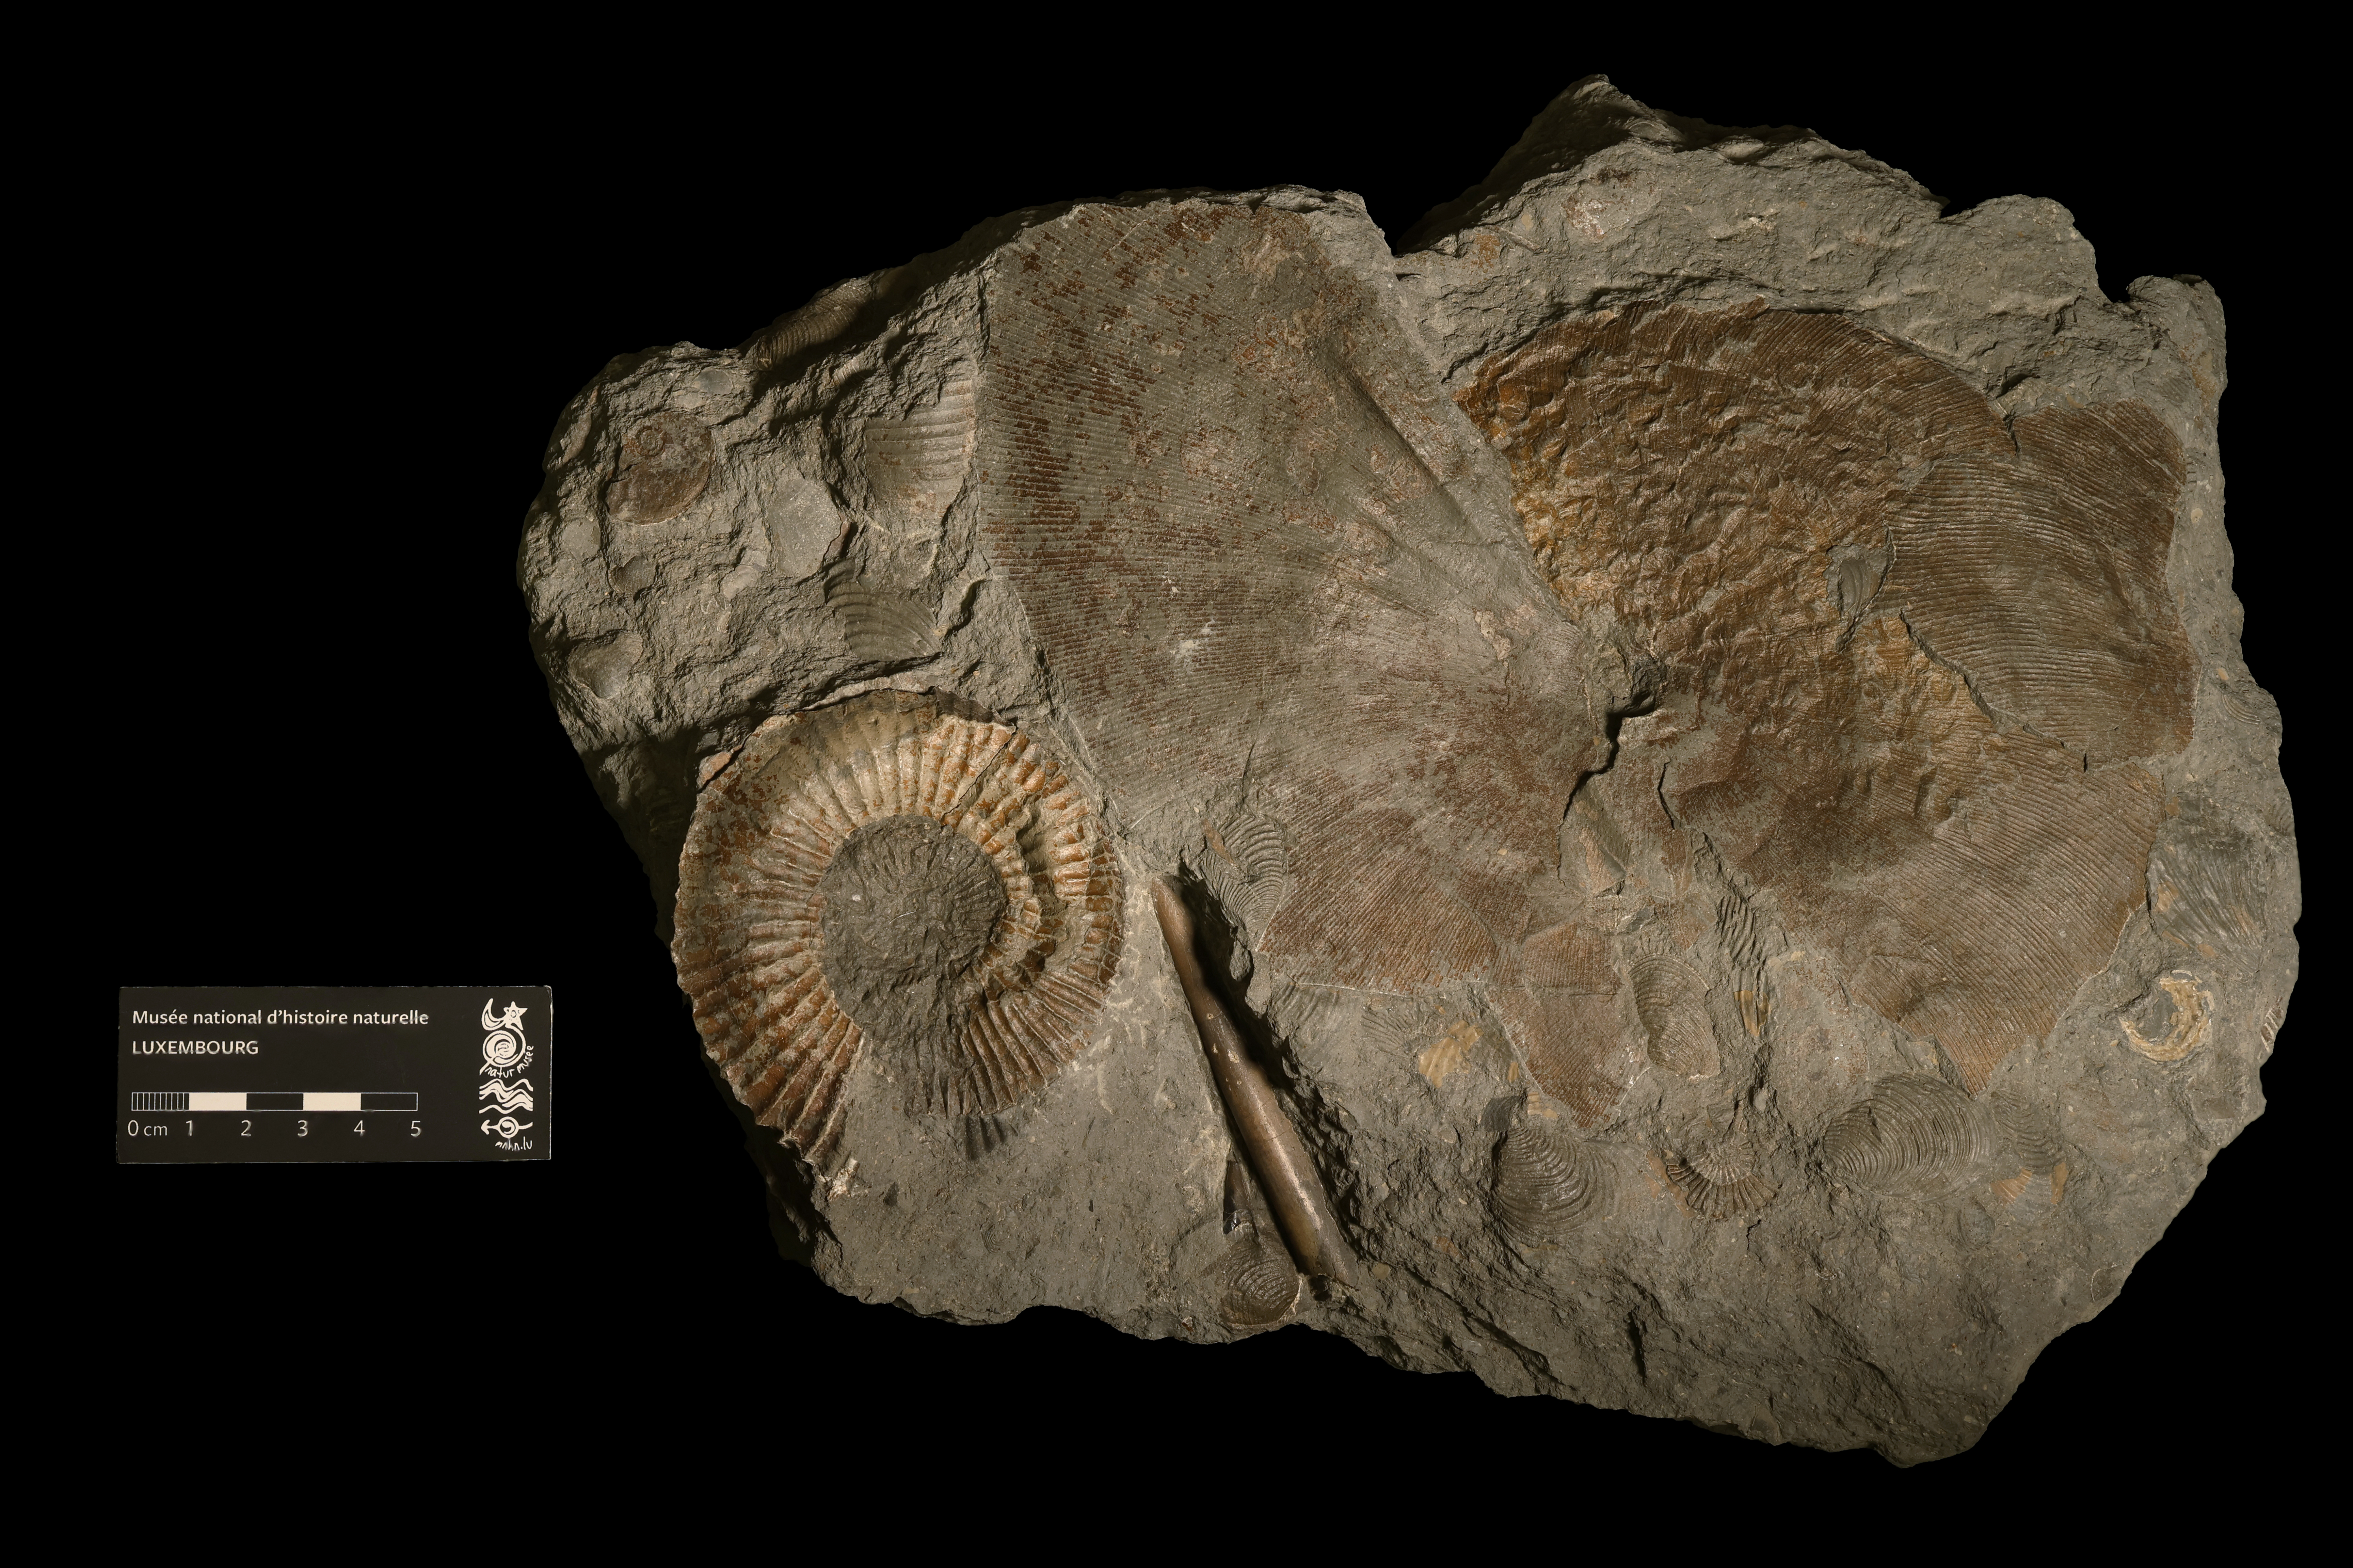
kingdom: Animalia
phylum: Mollusca
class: Cephalopoda
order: Phylloceratida
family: Phylloceratidae
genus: Phylloceras
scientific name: Phylloceras
